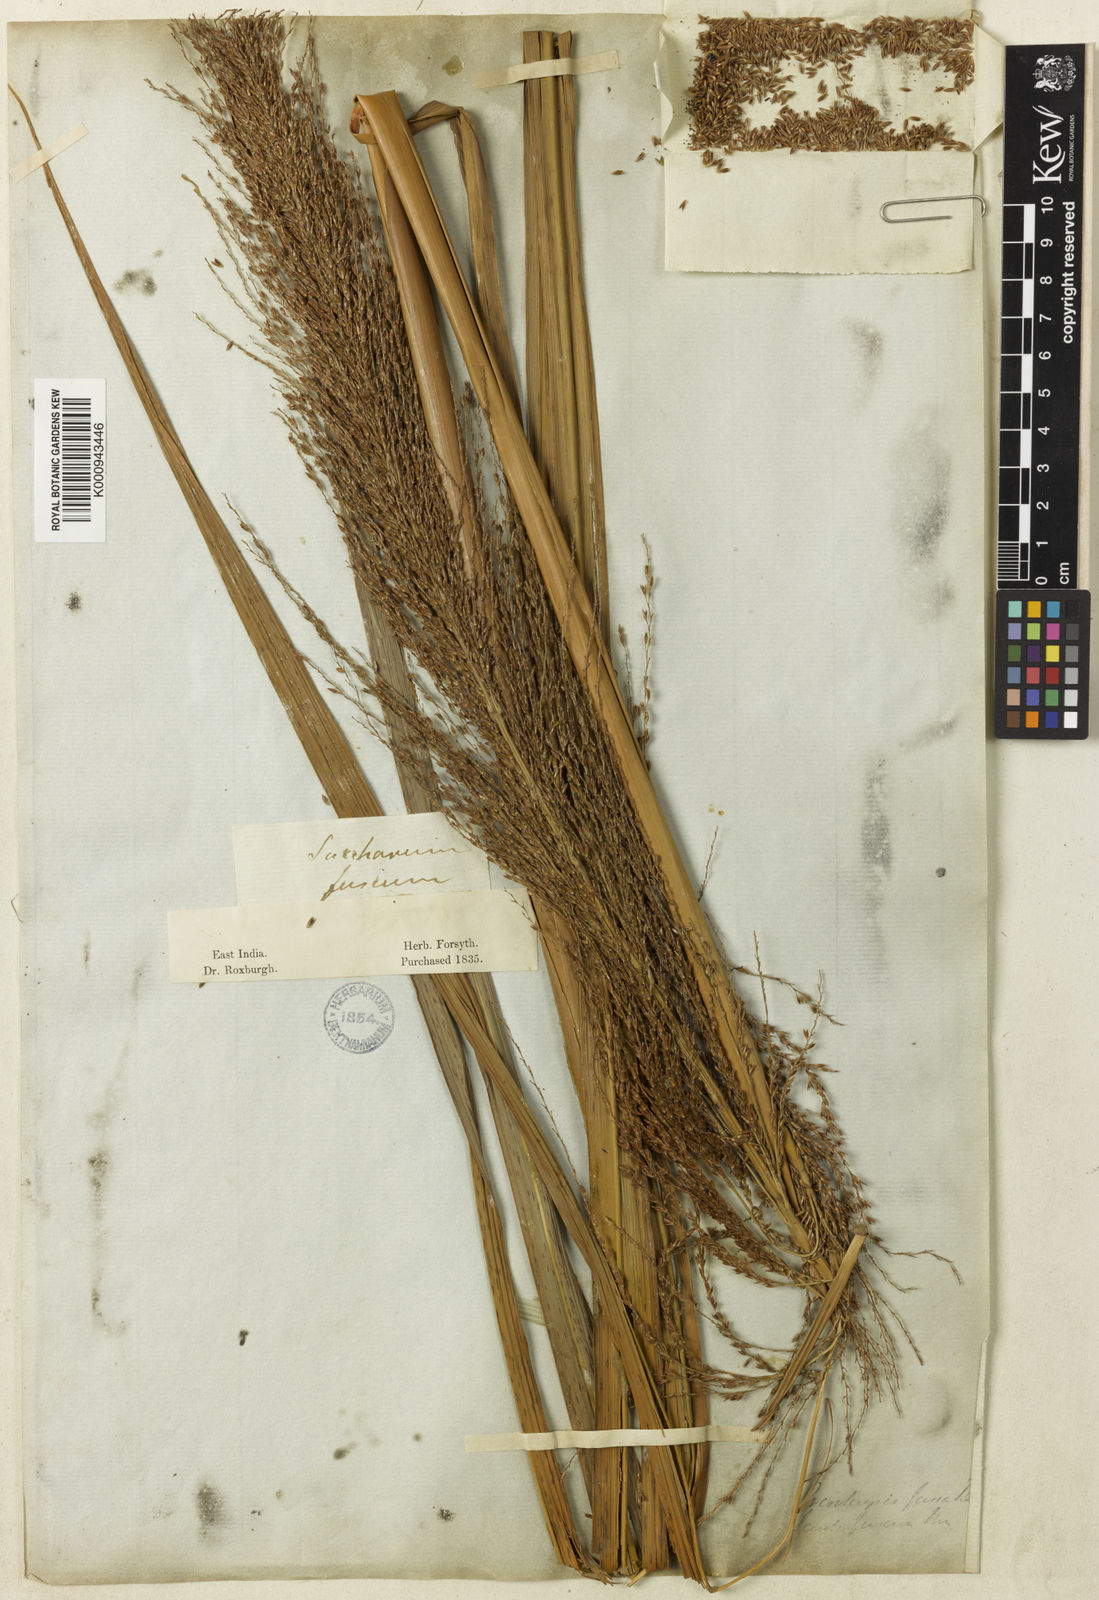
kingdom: Plantae
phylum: Tracheophyta
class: Liliopsida
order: Poales
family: Poaceae
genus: Miscanthus
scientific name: Miscanthus fuscus
